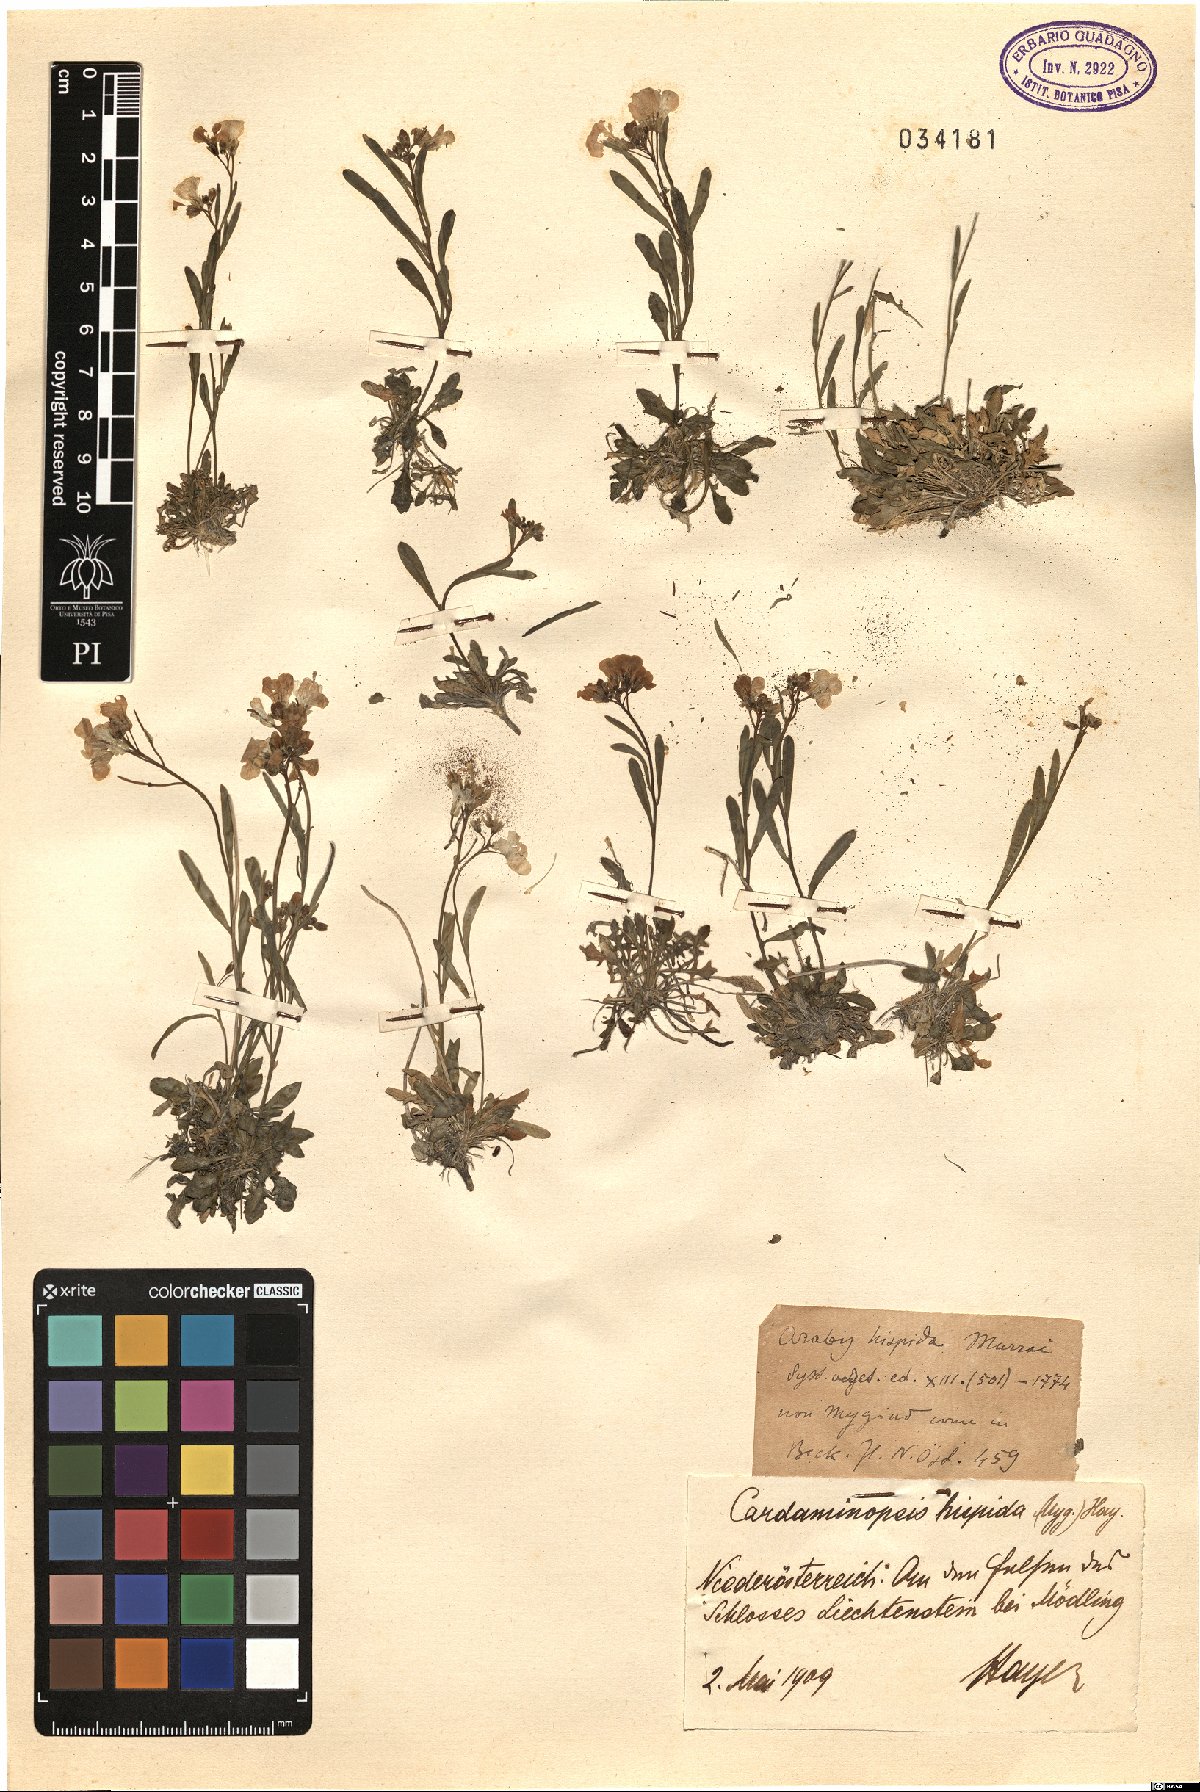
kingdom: Plantae
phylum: Tracheophyta
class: Magnoliopsida
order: Brassicales
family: Brassicaceae
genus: Arabidopsis
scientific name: Arabidopsis lyrata
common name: Lyrate rockcress
